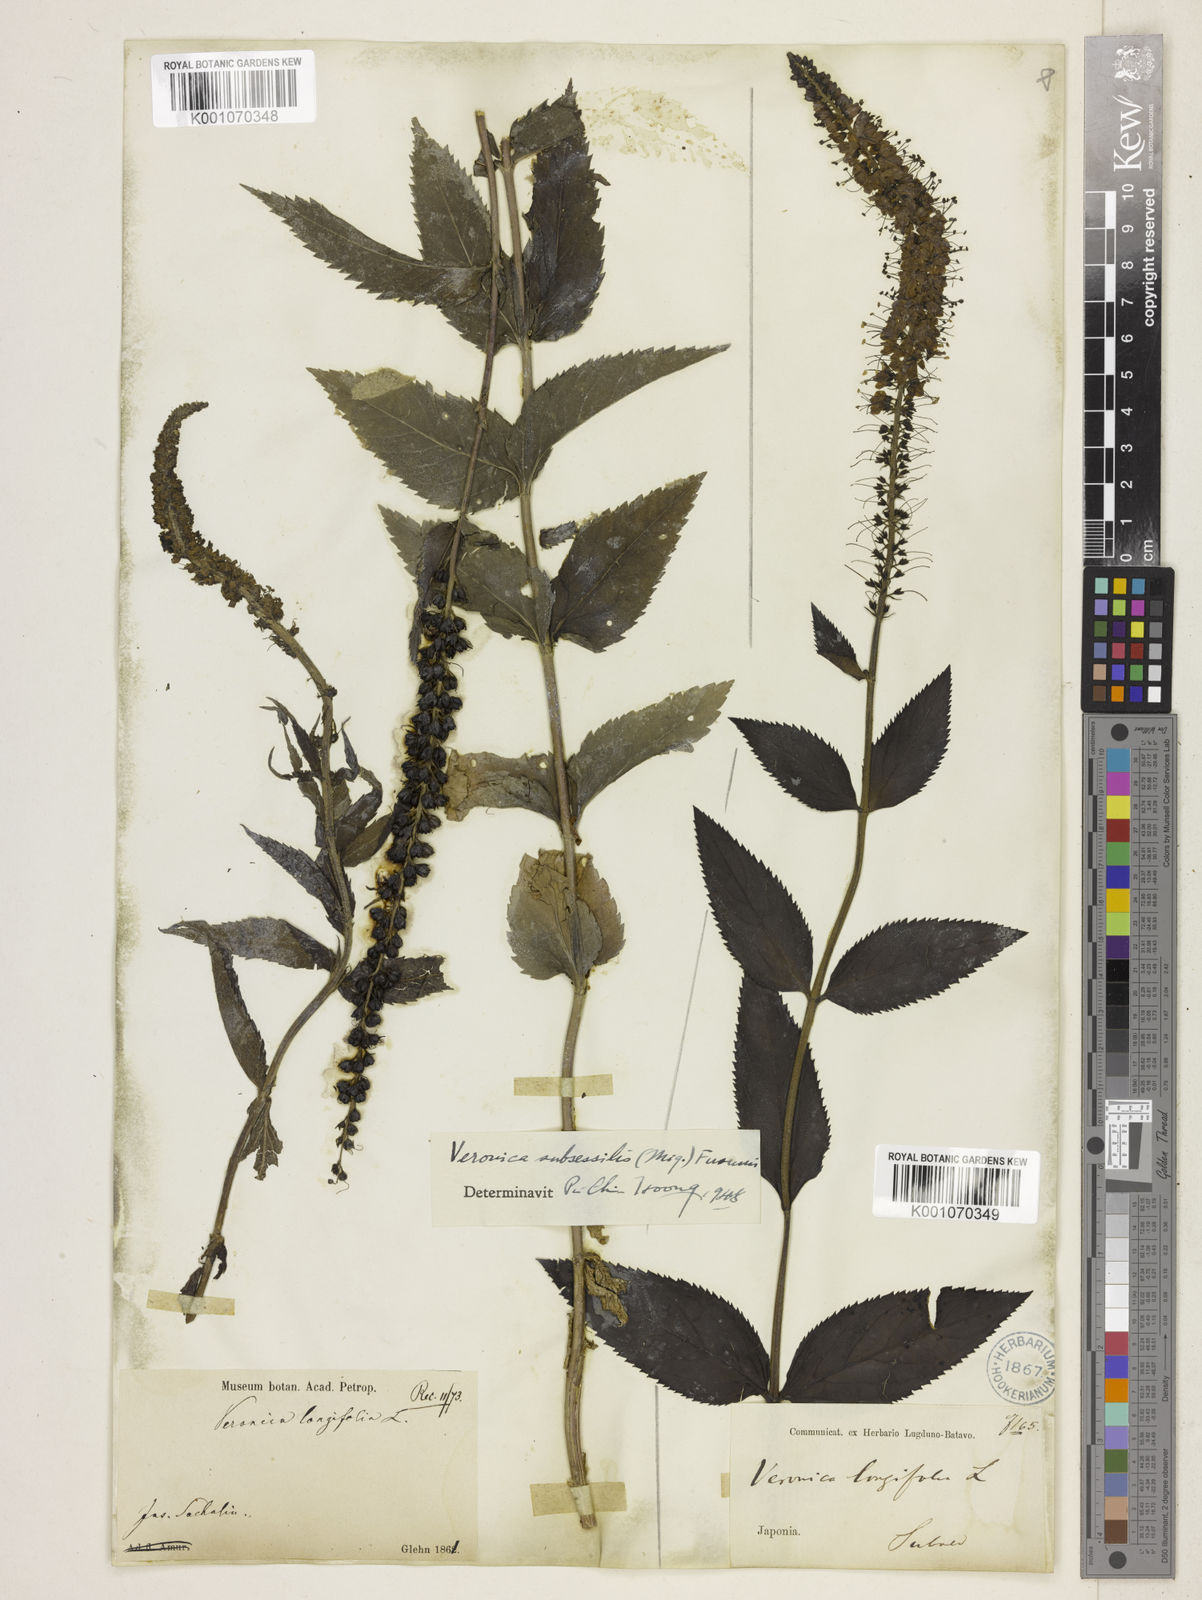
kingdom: Plantae
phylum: Tracheophyta
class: Magnoliopsida
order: Lamiales
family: Plantaginaceae
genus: Veronica
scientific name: Veronica subsessilis
